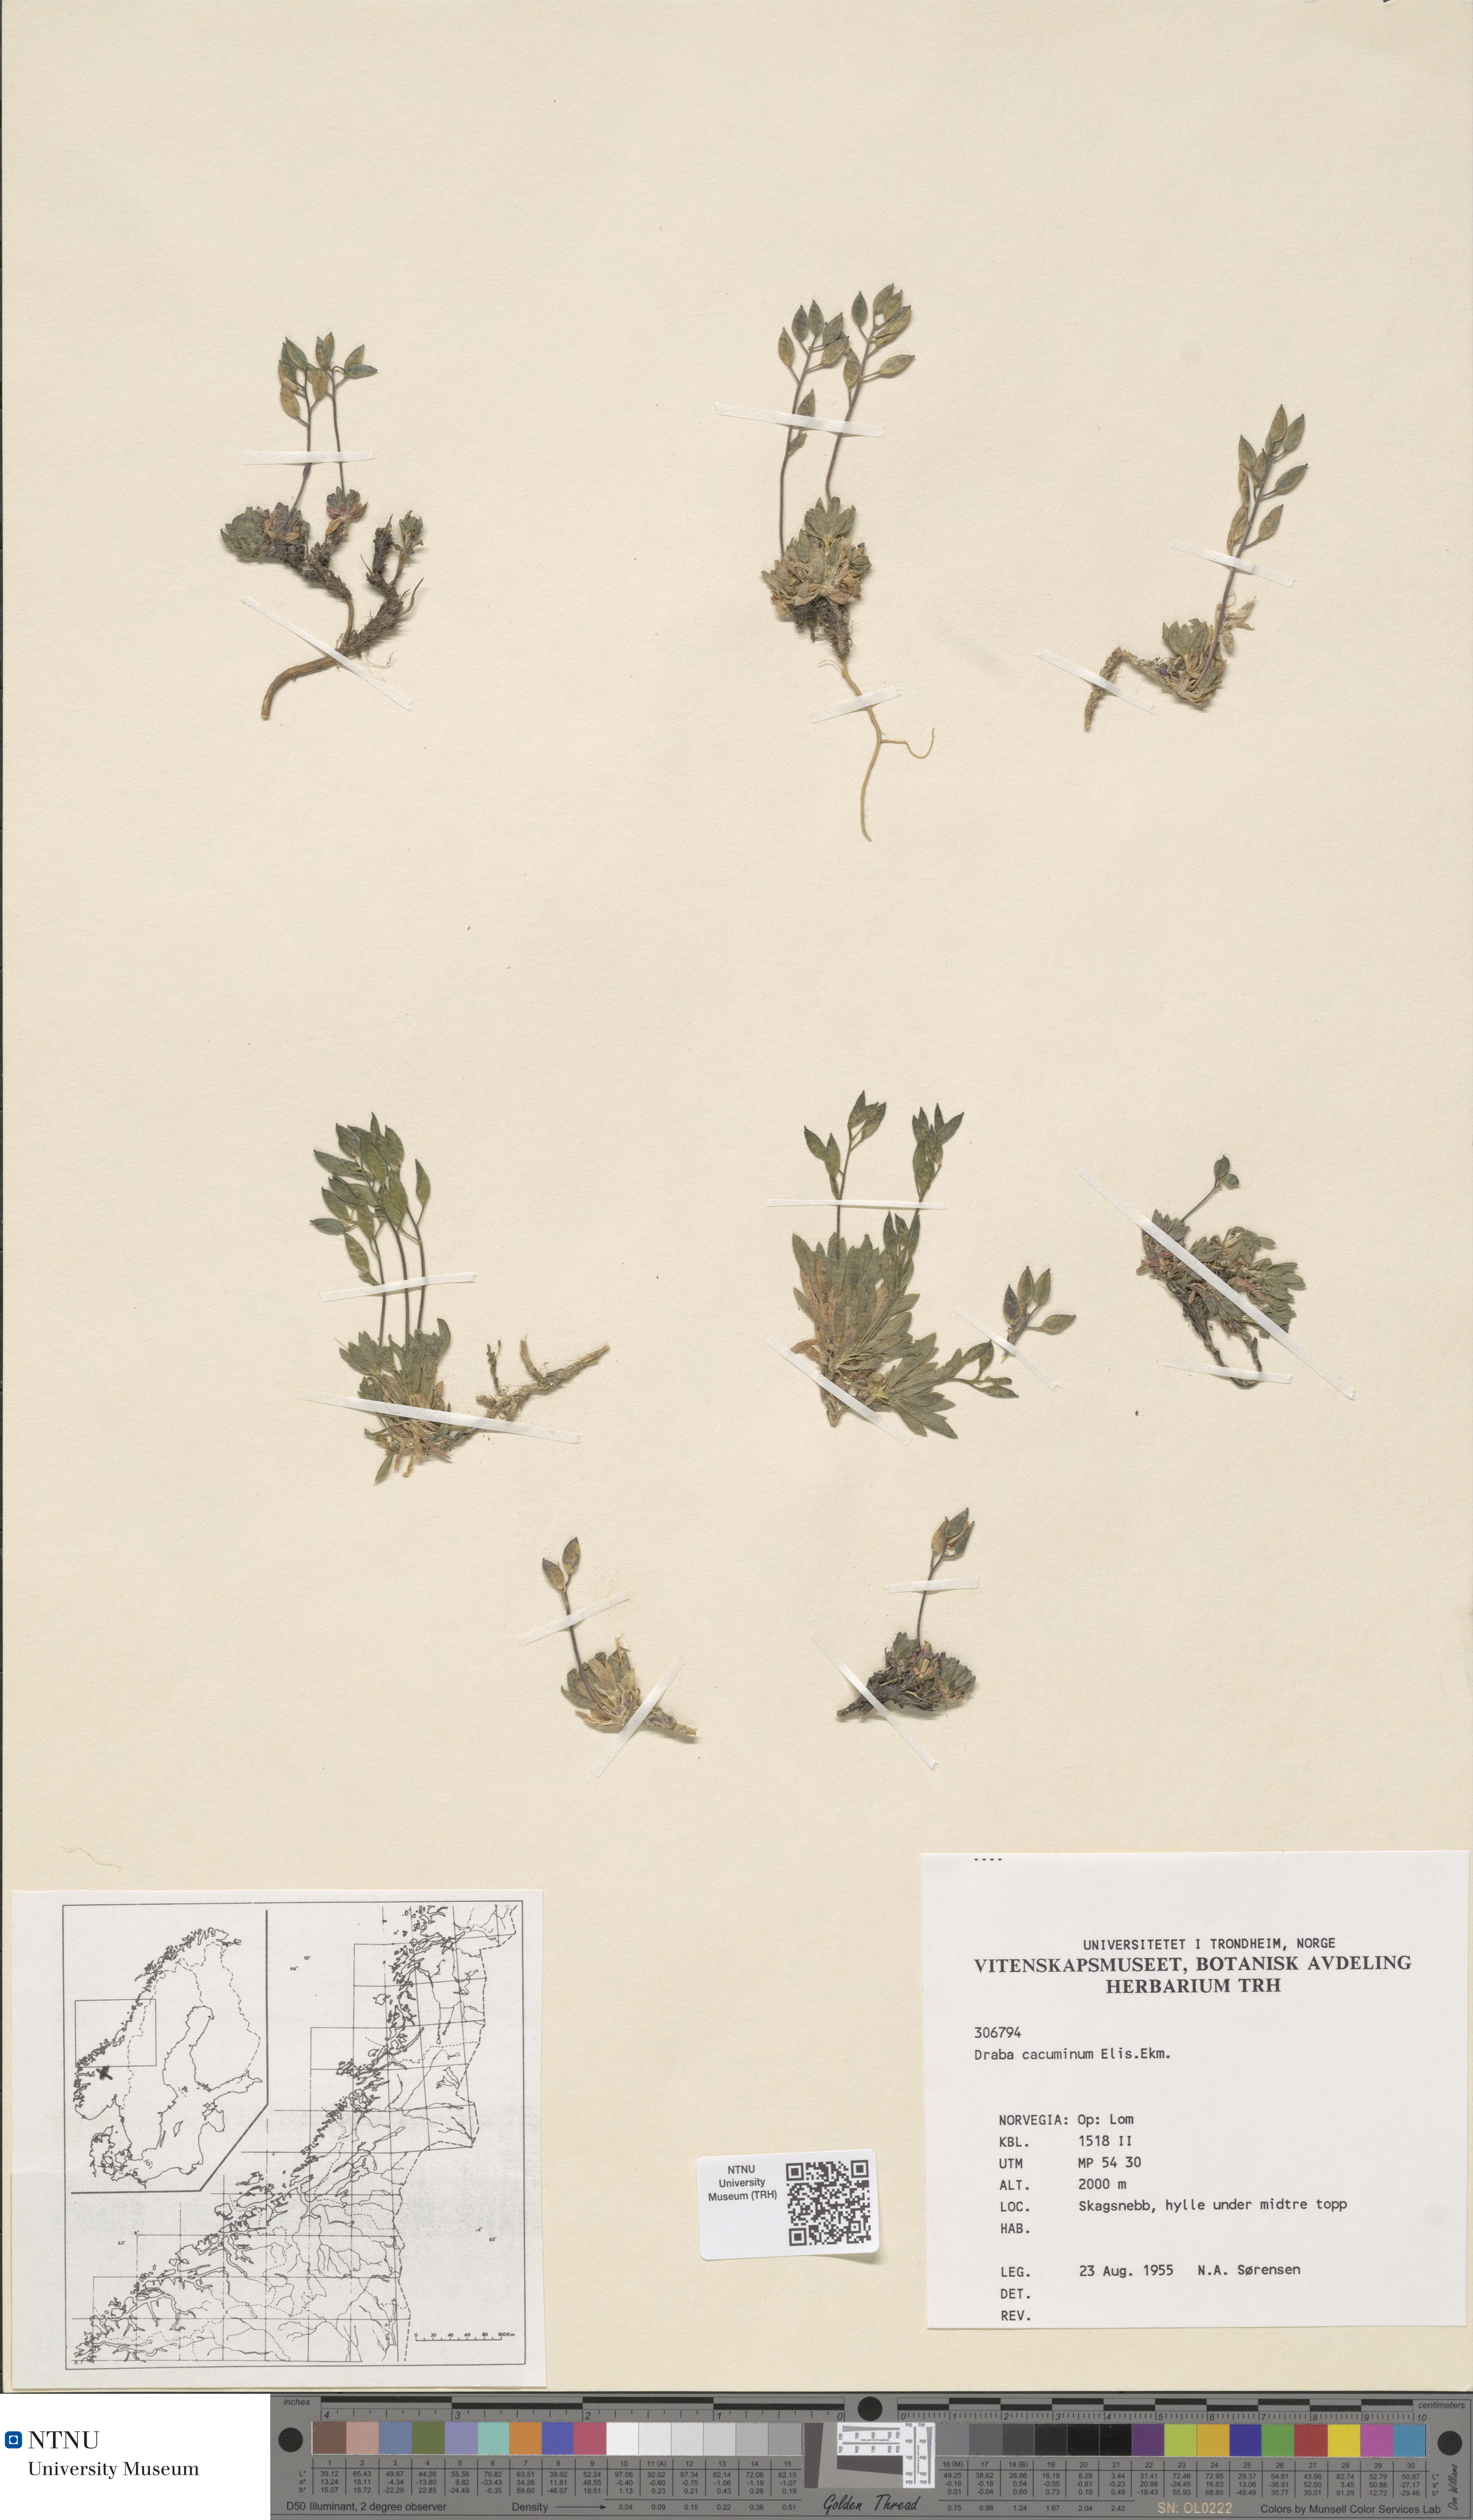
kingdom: Plantae
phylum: Tracheophyta
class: Magnoliopsida
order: Brassicales
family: Brassicaceae
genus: Draba
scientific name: Draba cacuminum
